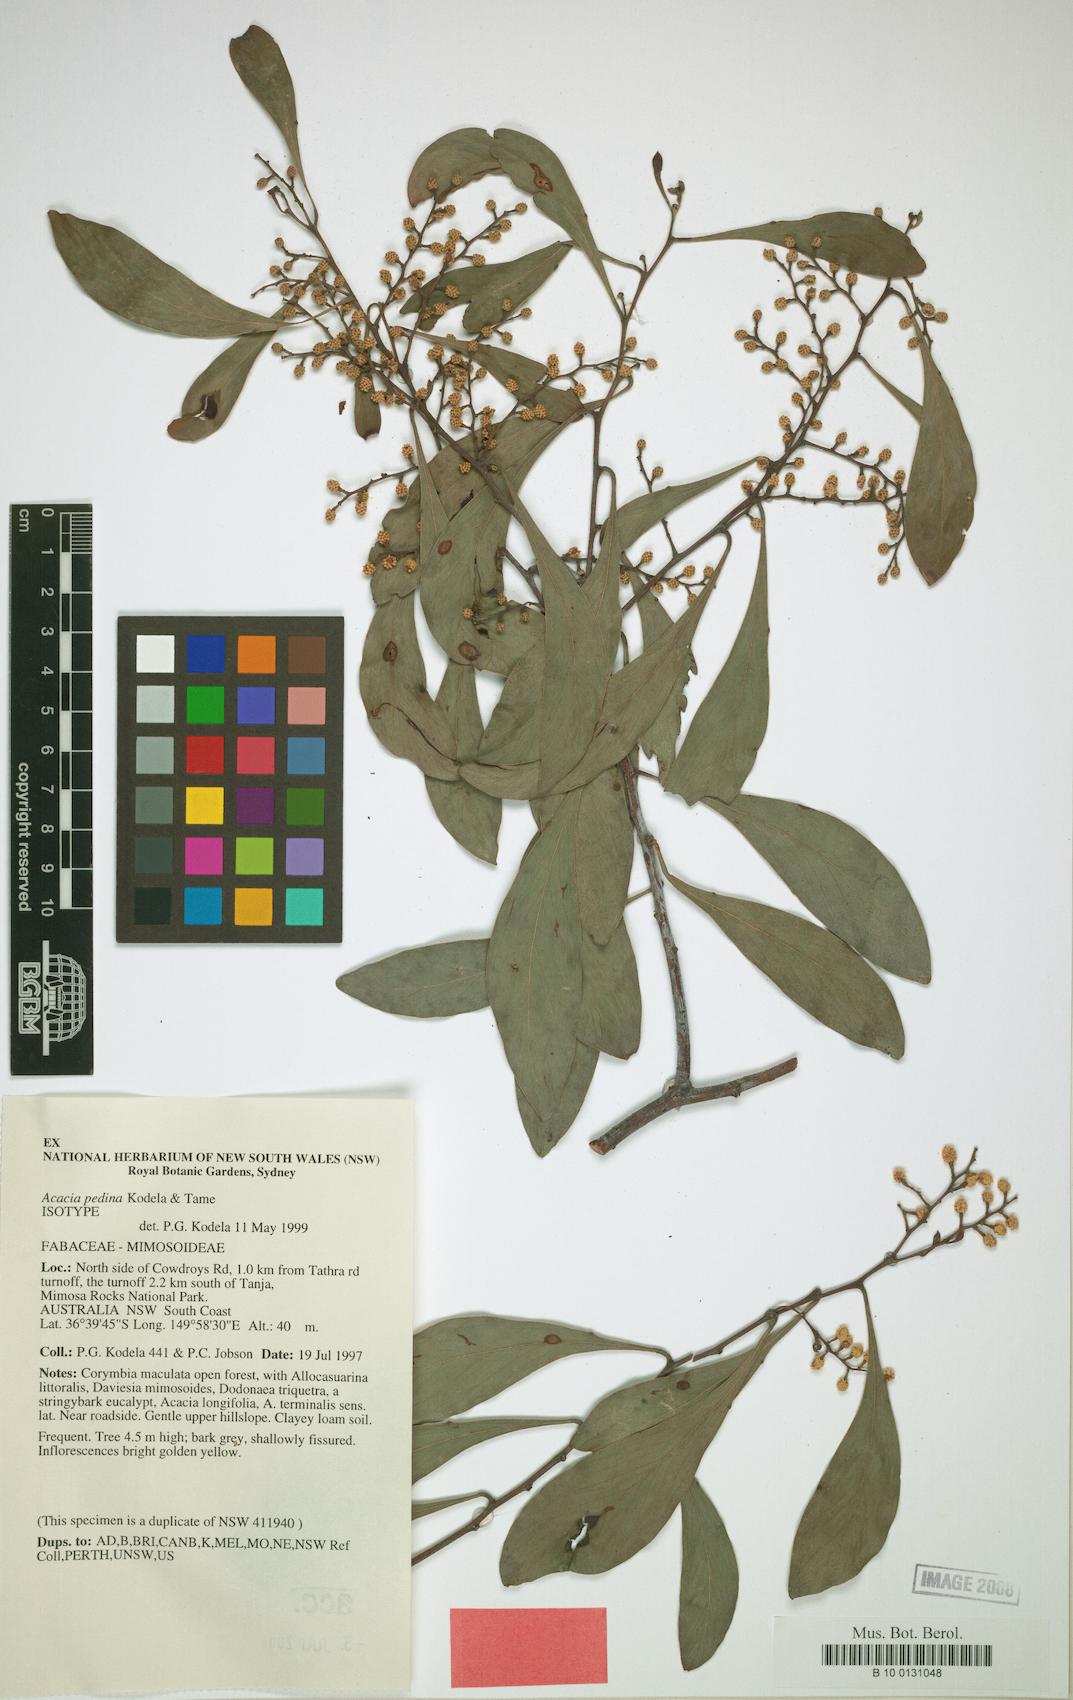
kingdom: Plantae
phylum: Tracheophyta
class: Magnoliopsida
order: Fabales
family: Fabaceae
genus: Acacia
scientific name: Acacia pedina
